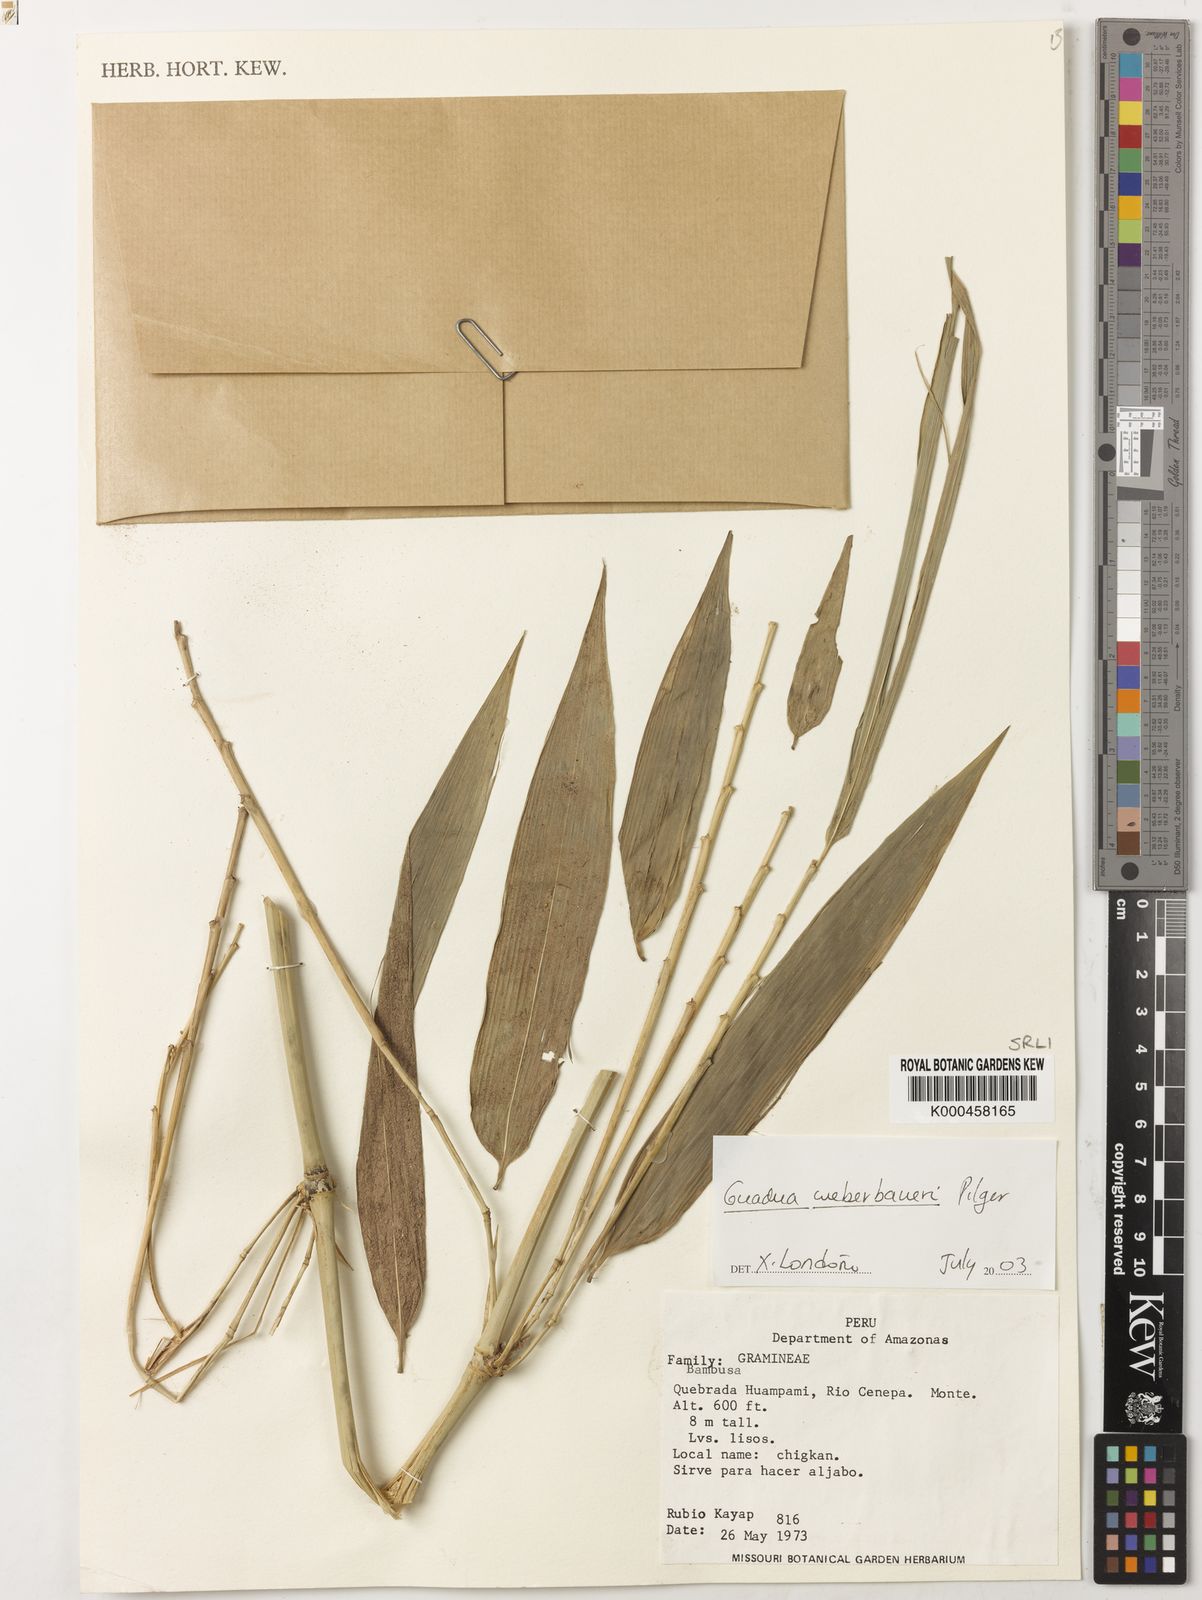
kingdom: Plantae
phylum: Tracheophyta
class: Liliopsida
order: Poales
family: Poaceae
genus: Guadua
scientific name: Guadua weberbaueri
